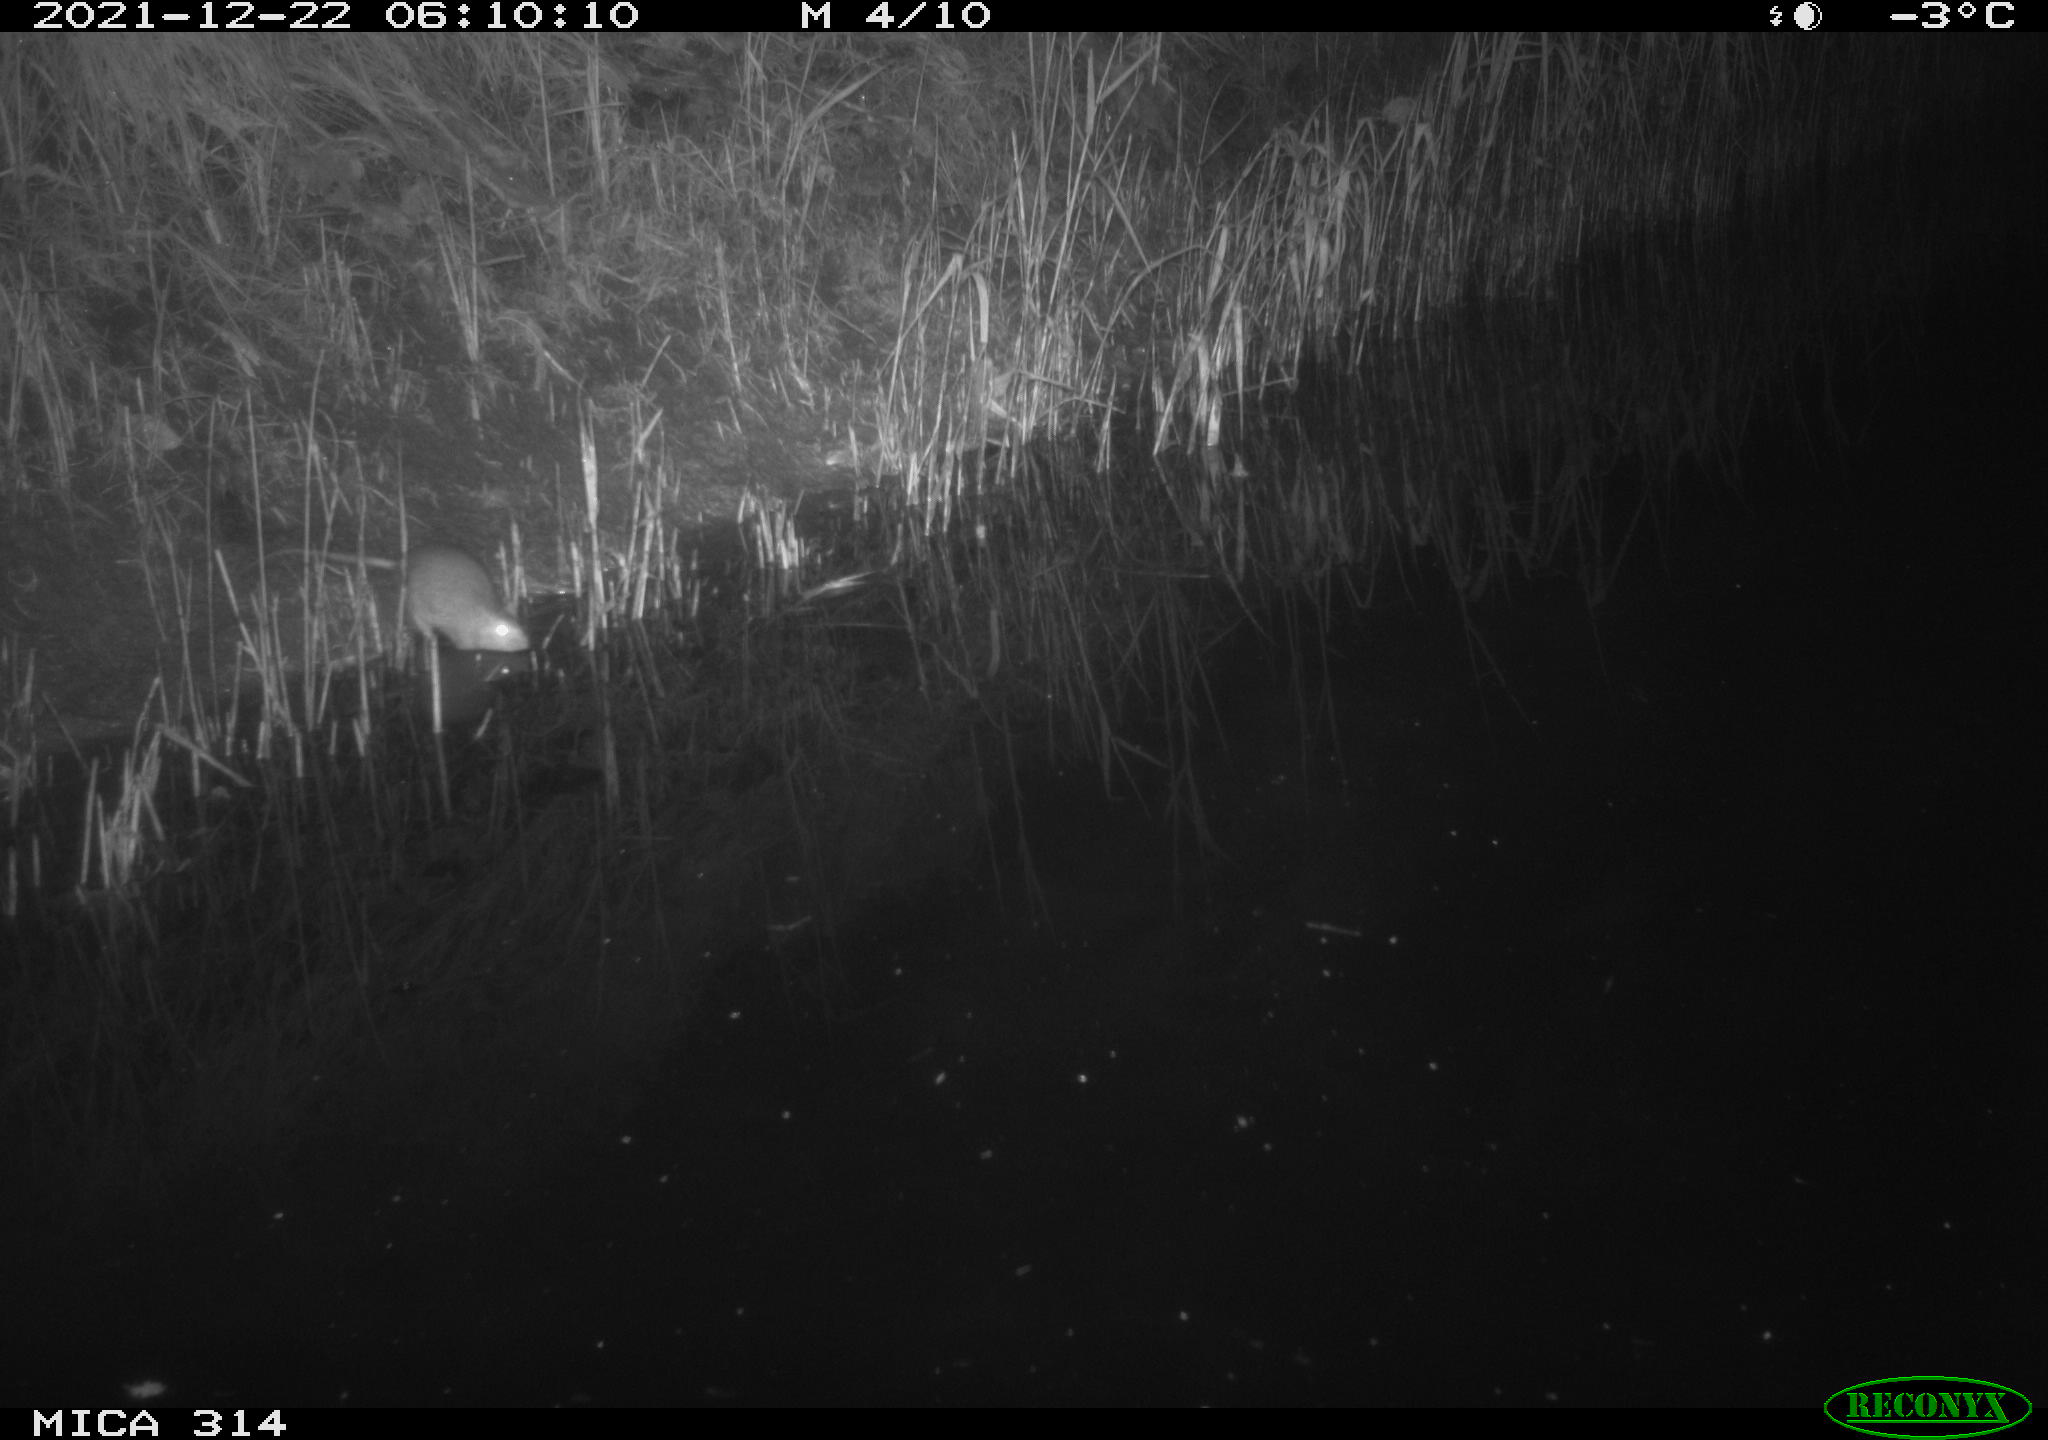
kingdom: Animalia
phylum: Chordata
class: Mammalia
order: Rodentia
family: Muridae
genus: Rattus
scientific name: Rattus norvegicus
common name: Brown rat
